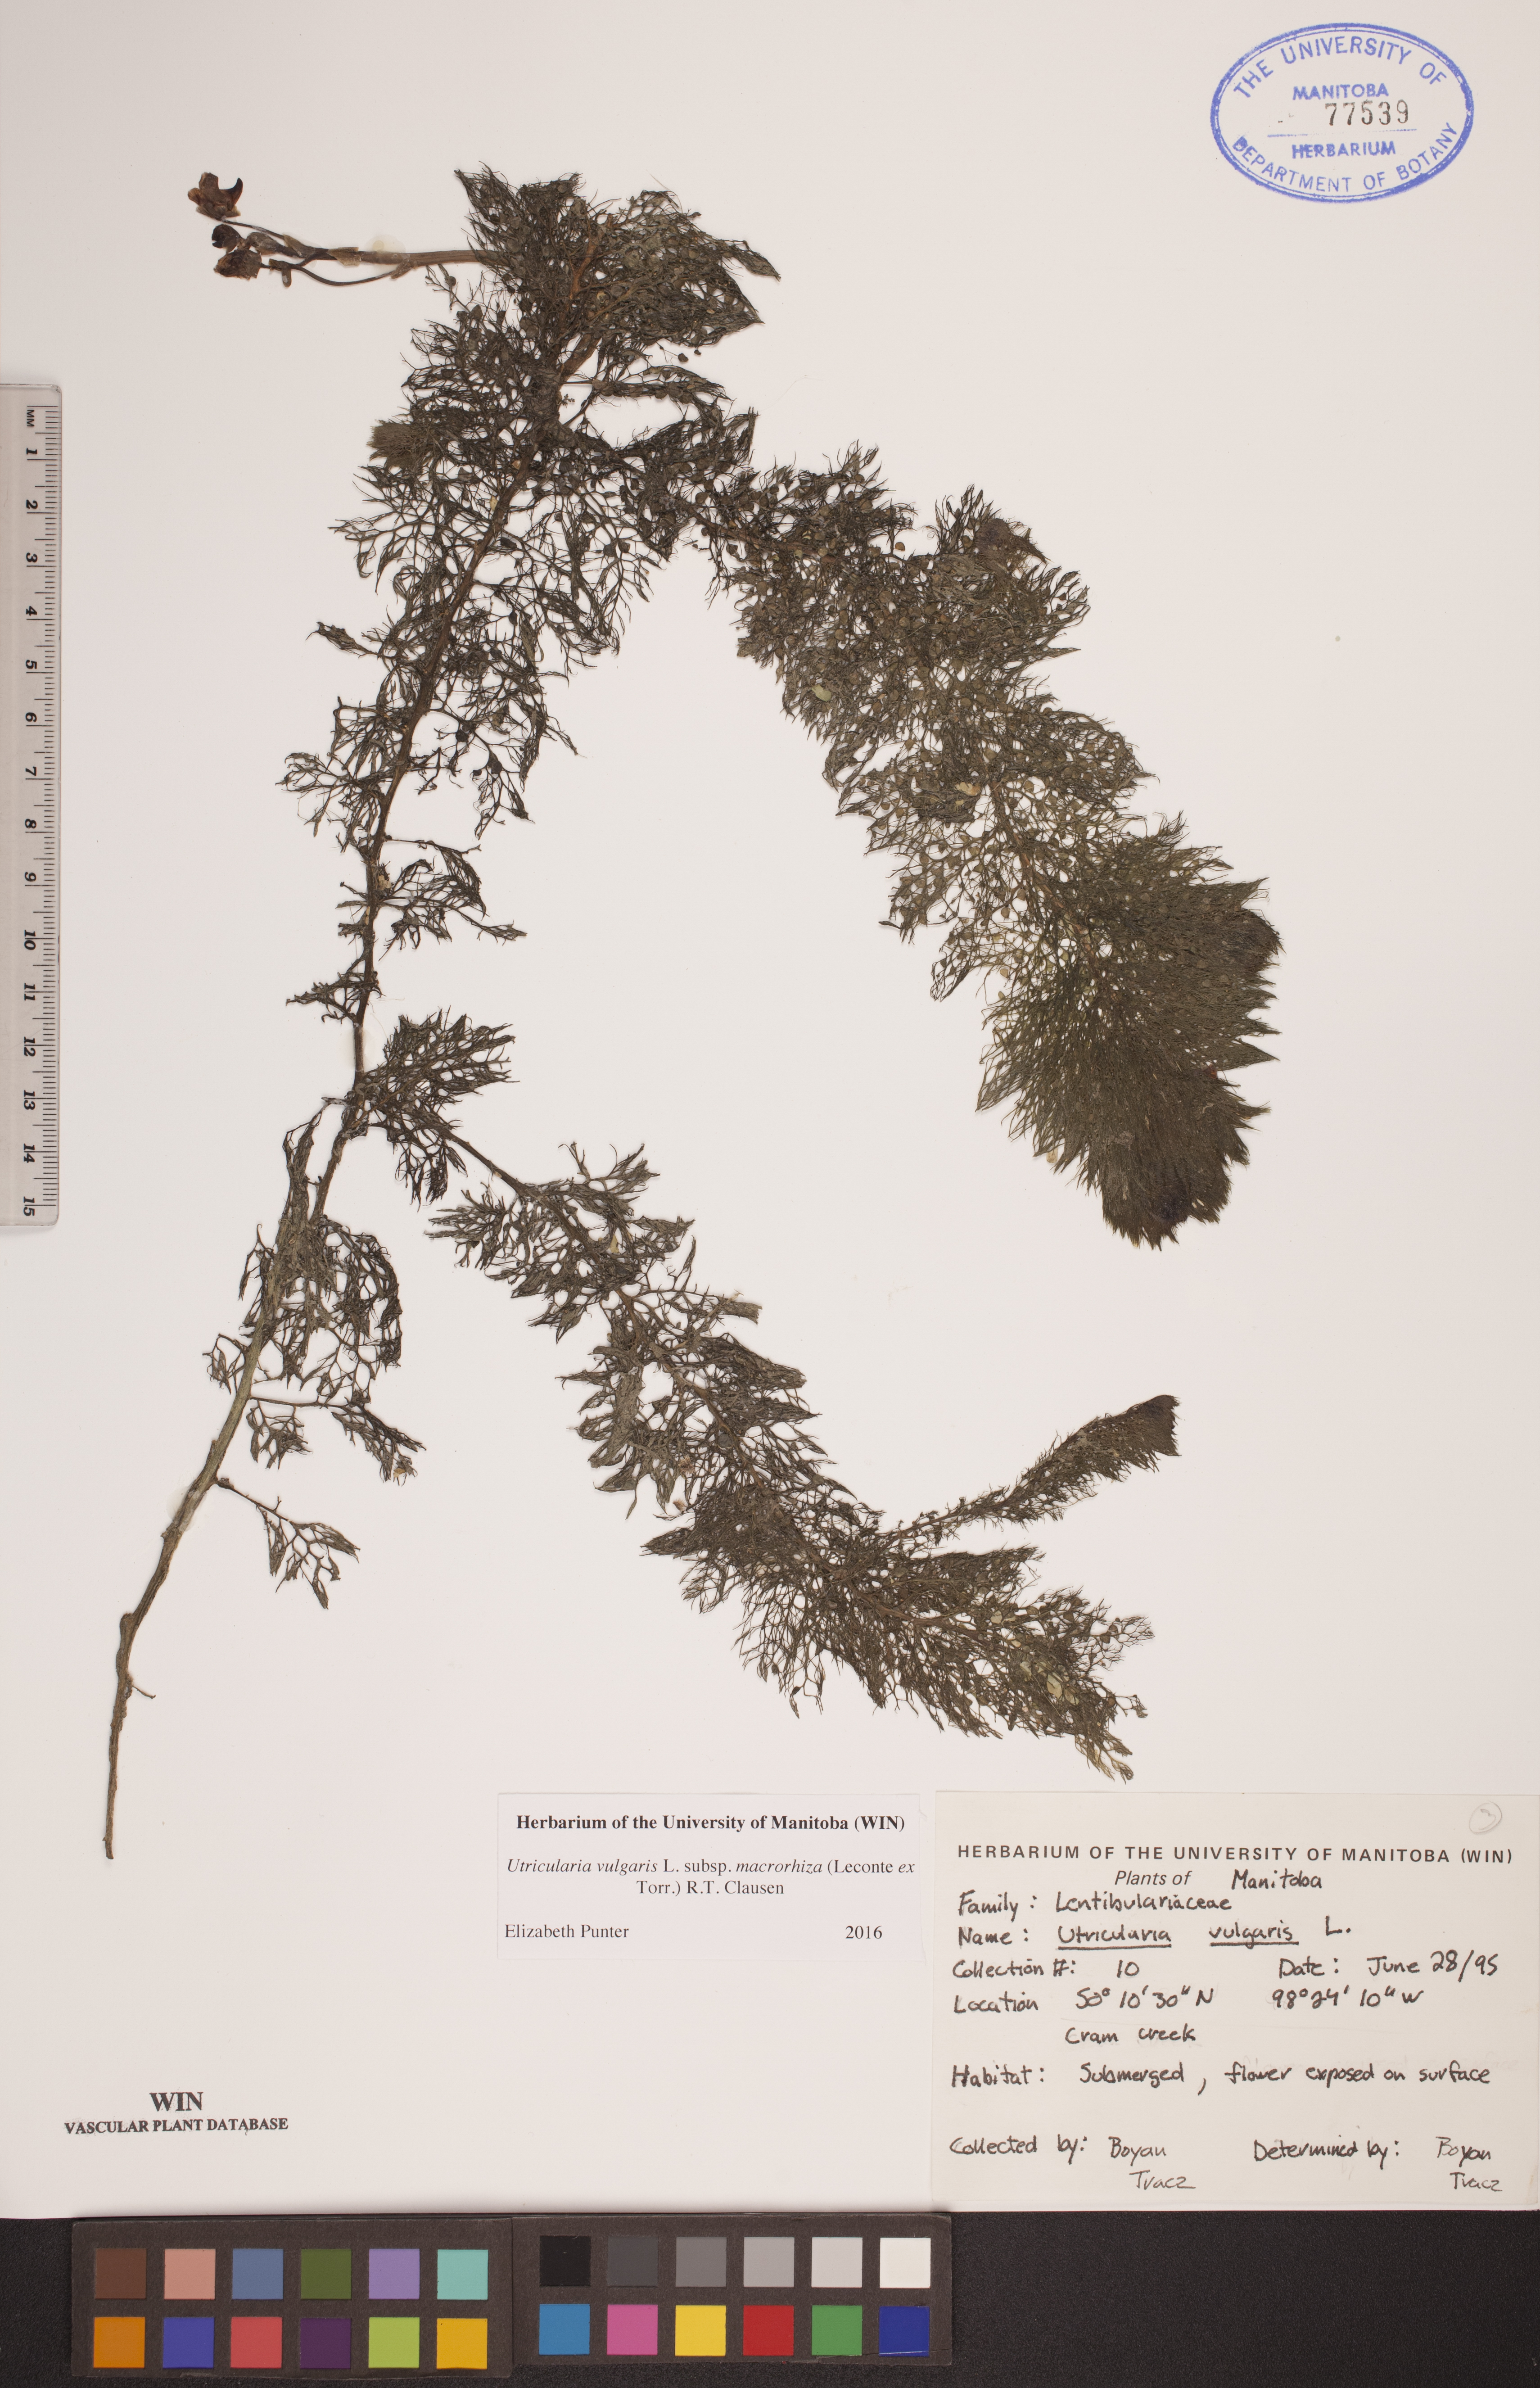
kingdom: Plantae
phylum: Tracheophyta
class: Magnoliopsida
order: Lamiales
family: Lentibulariaceae
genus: Utricularia
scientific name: Utricularia macrorhiza
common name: Common bladderwort
